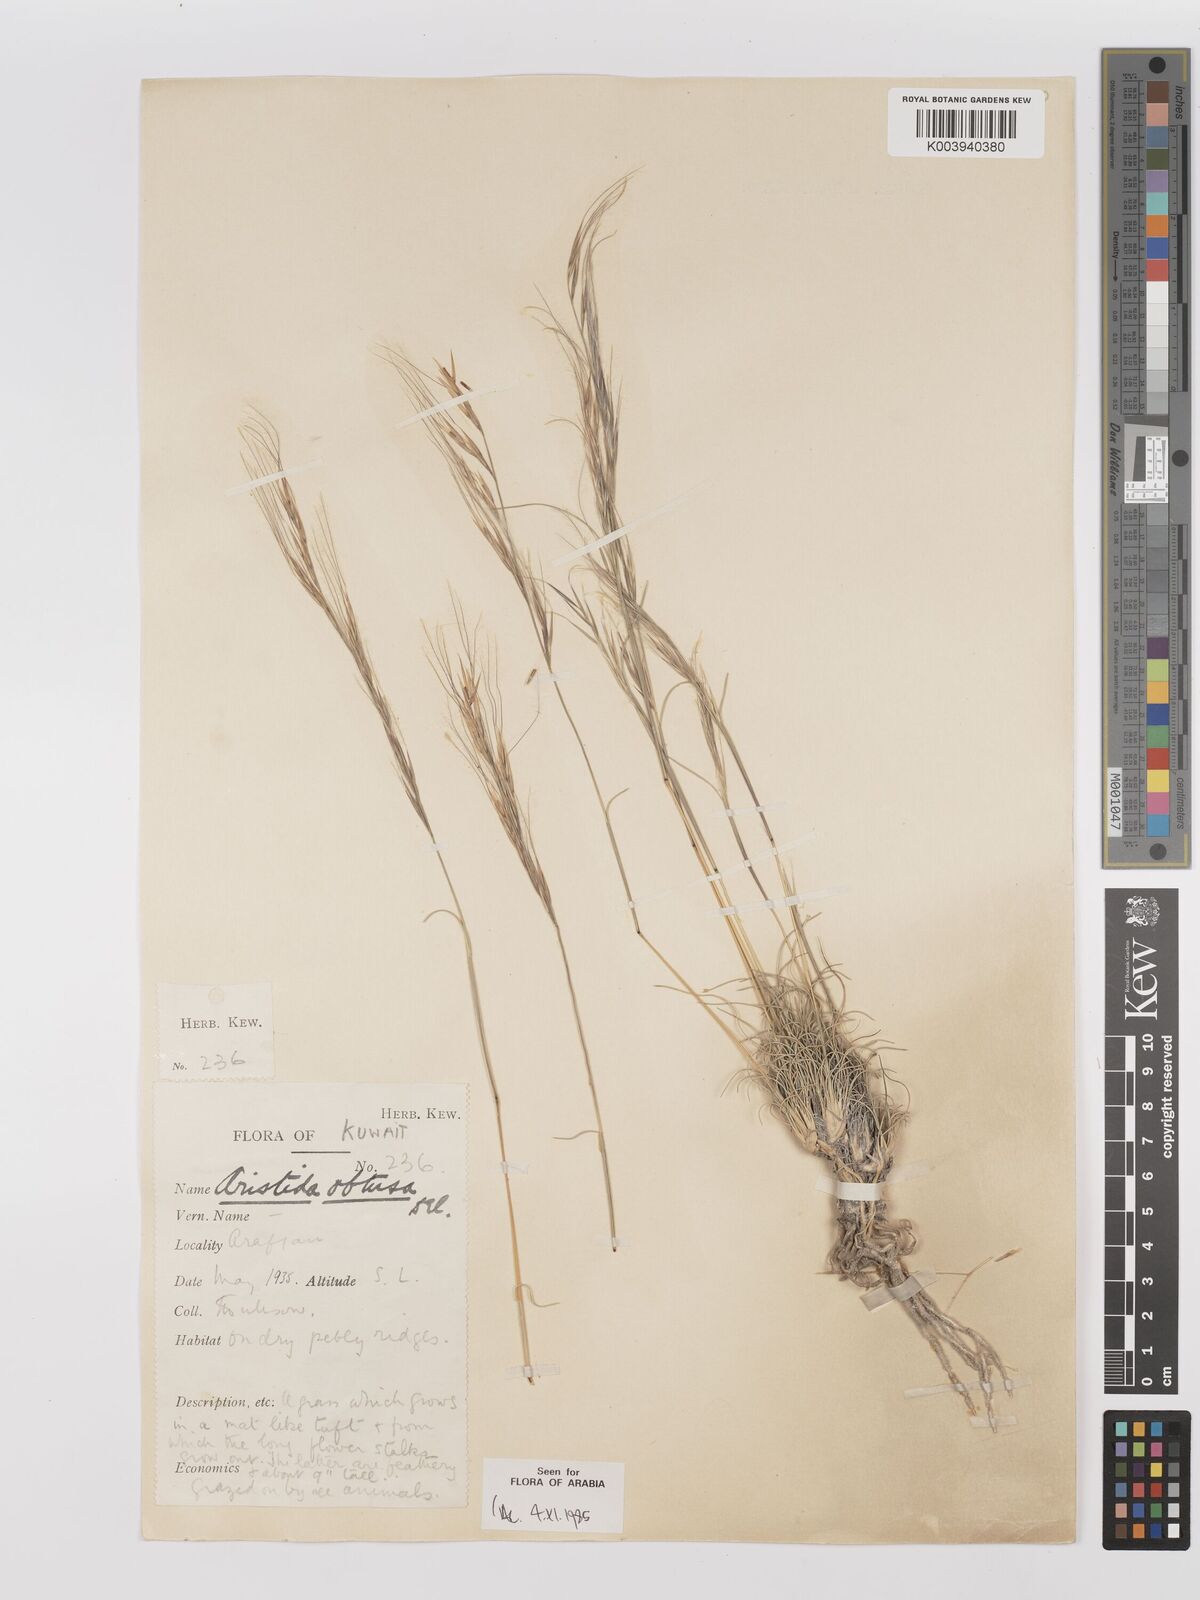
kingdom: Plantae
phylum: Tracheophyta
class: Liliopsida
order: Poales
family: Poaceae
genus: Stipagrostis
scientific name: Stipagrostis obtusa
